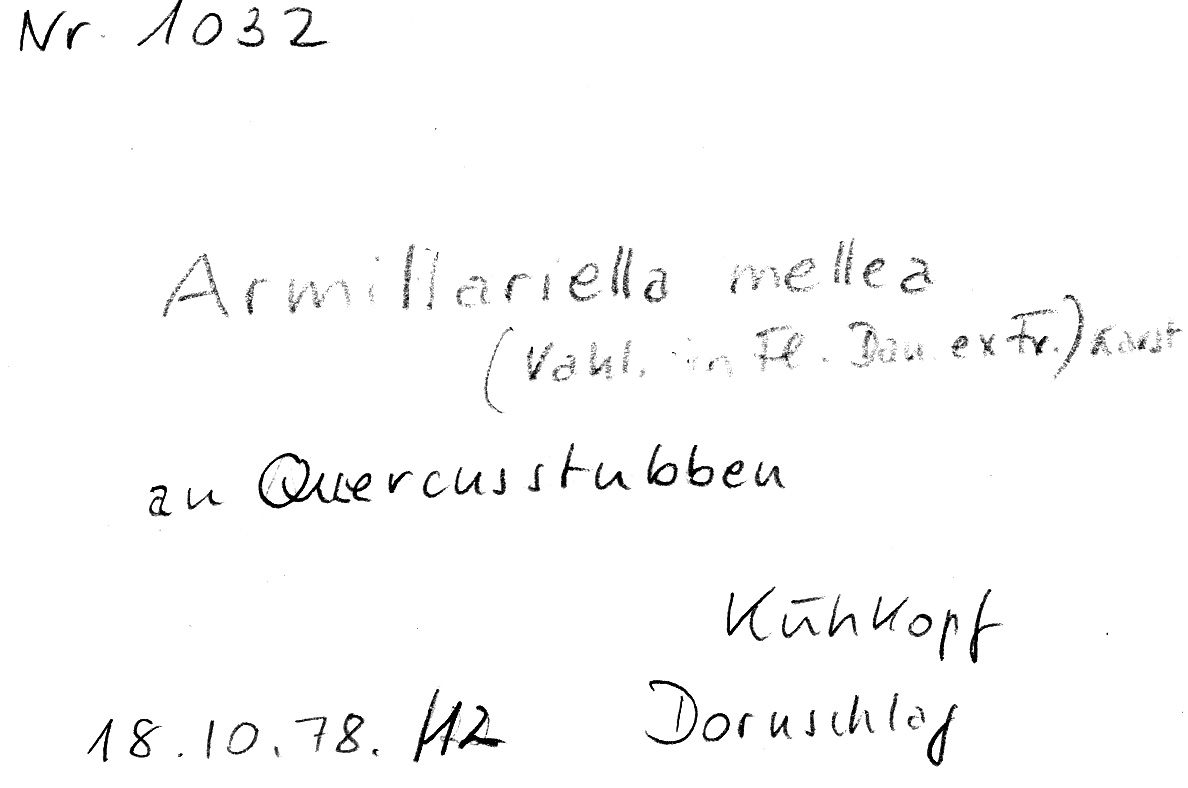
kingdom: Fungi
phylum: Basidiomycota
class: Agaricomycetes
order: Agaricales
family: Physalacriaceae
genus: Armillaria
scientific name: Armillaria mellea
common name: Honey fungus
